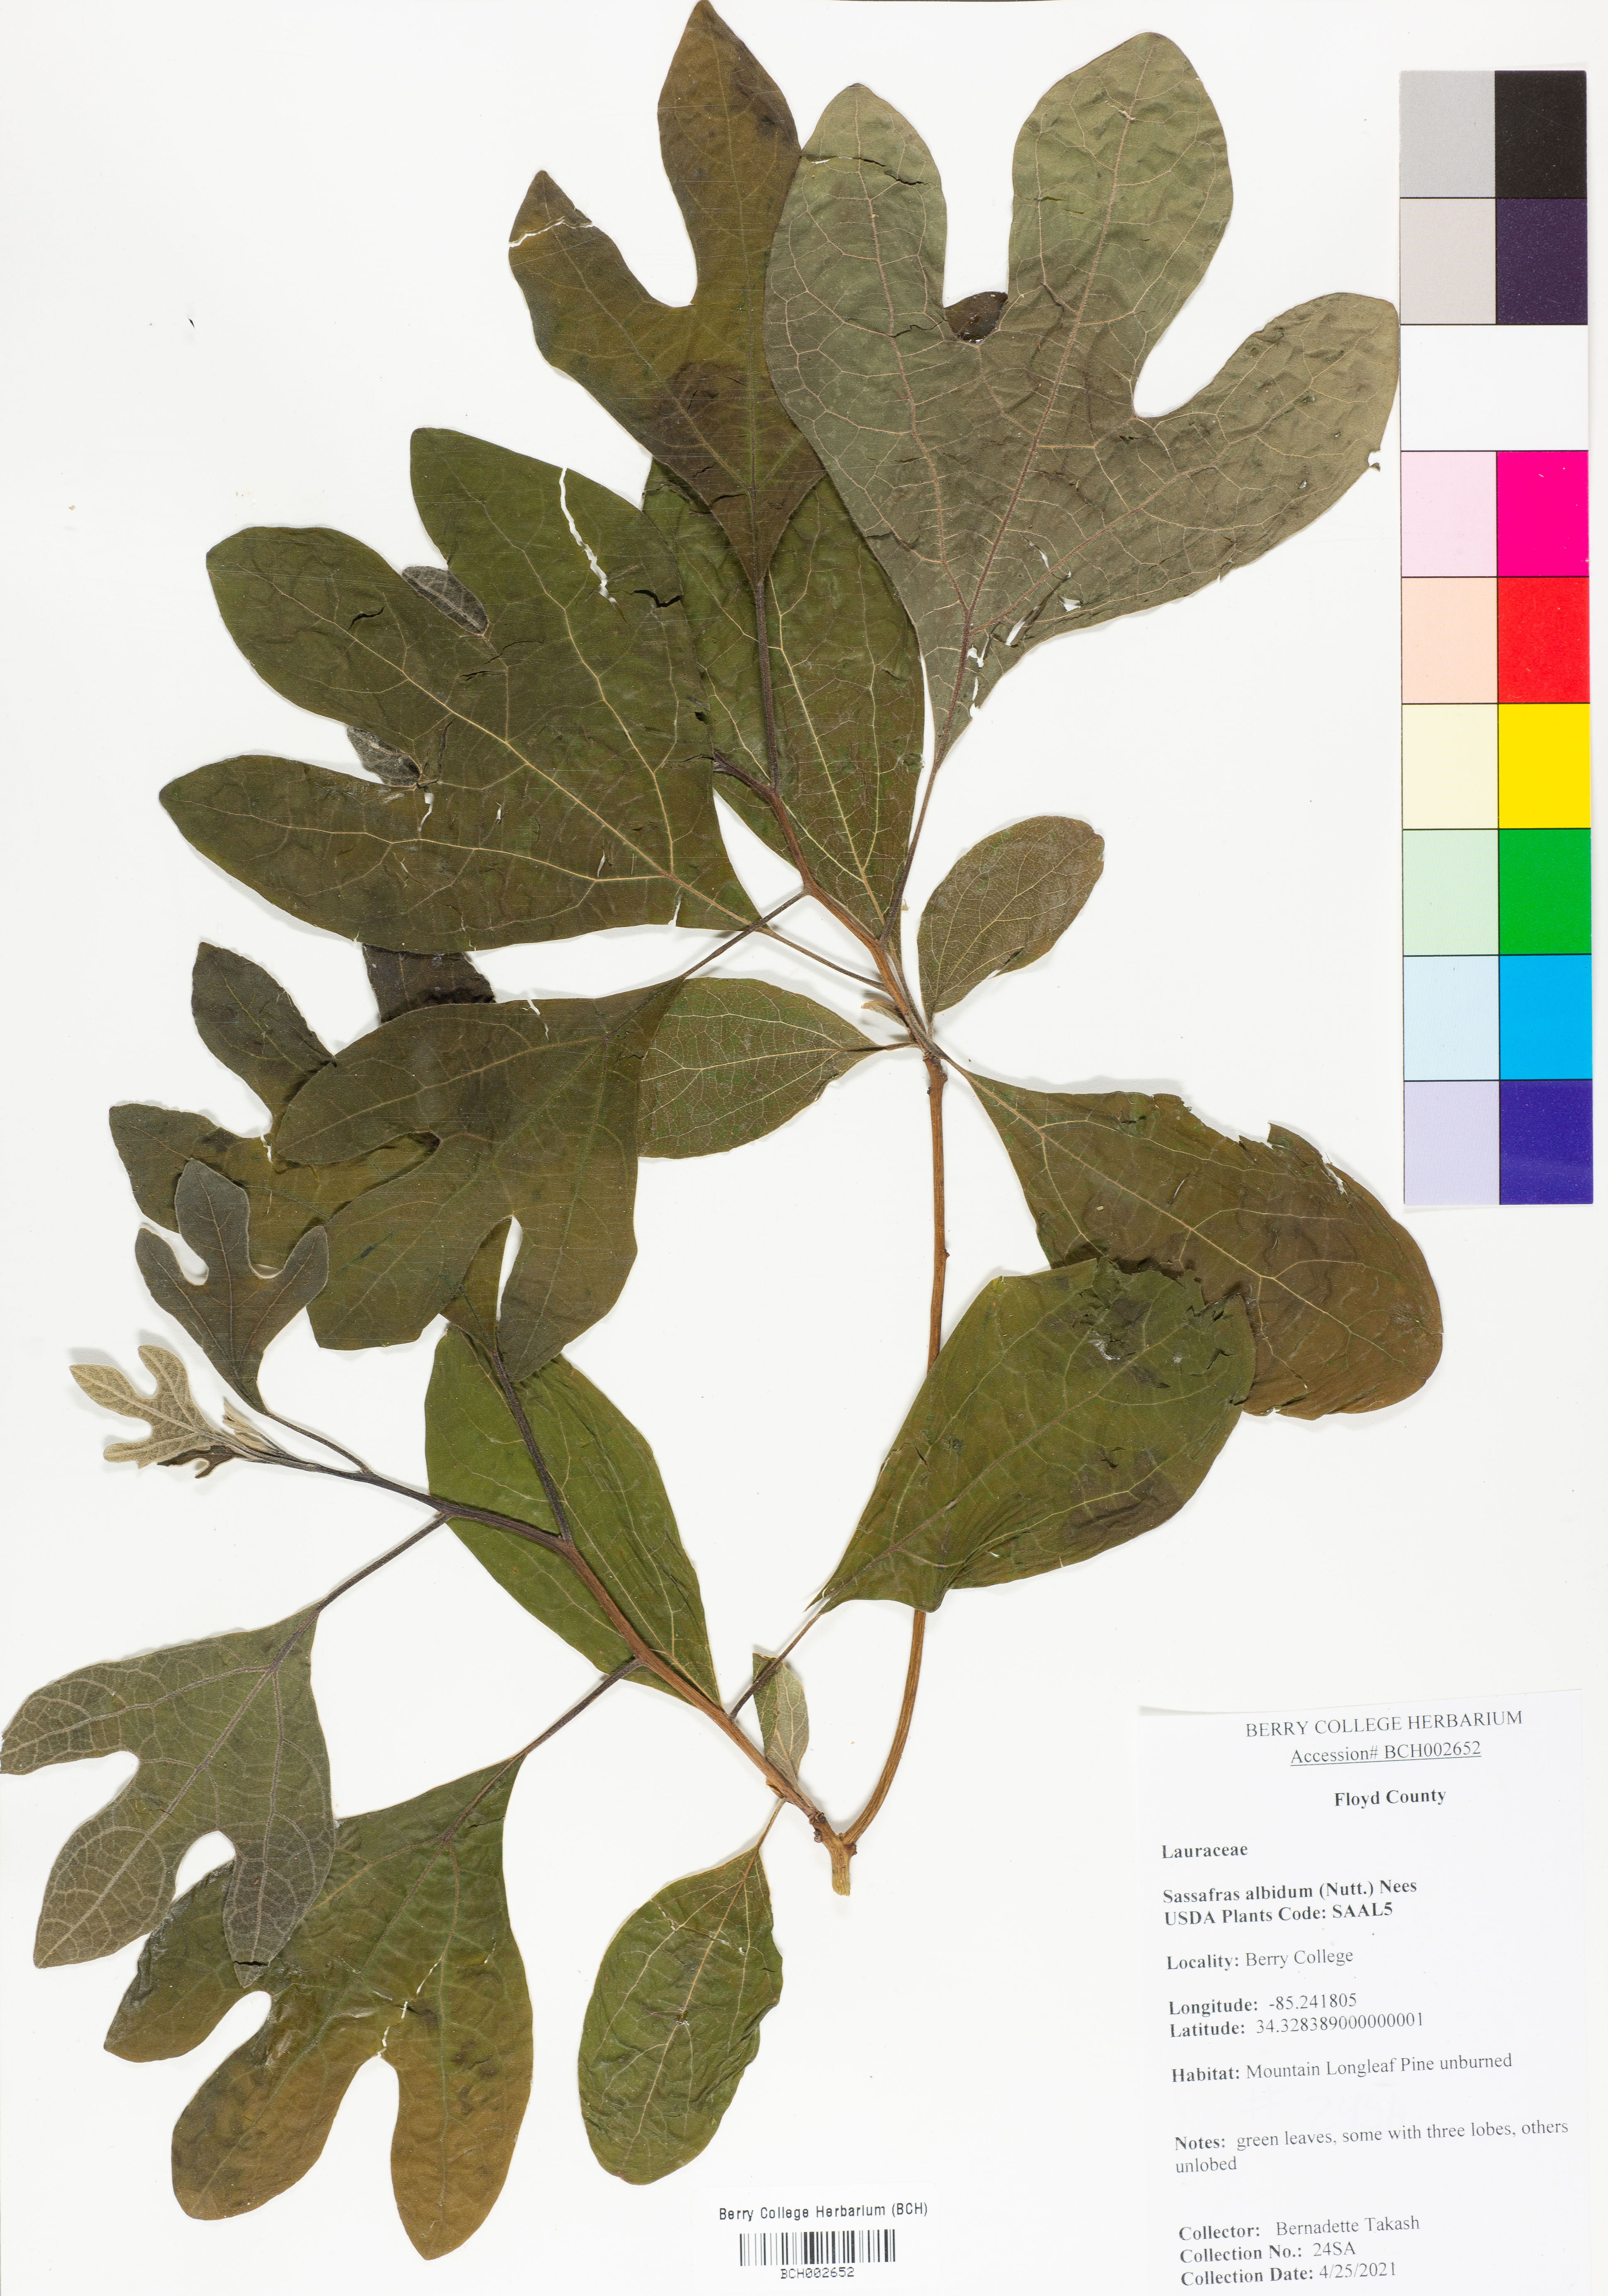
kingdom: Plantae
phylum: Tracheophyta
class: Magnoliopsida
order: Laurales
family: Lauraceae
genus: Sassafras
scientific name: Sassafras albidum
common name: Sassafras
